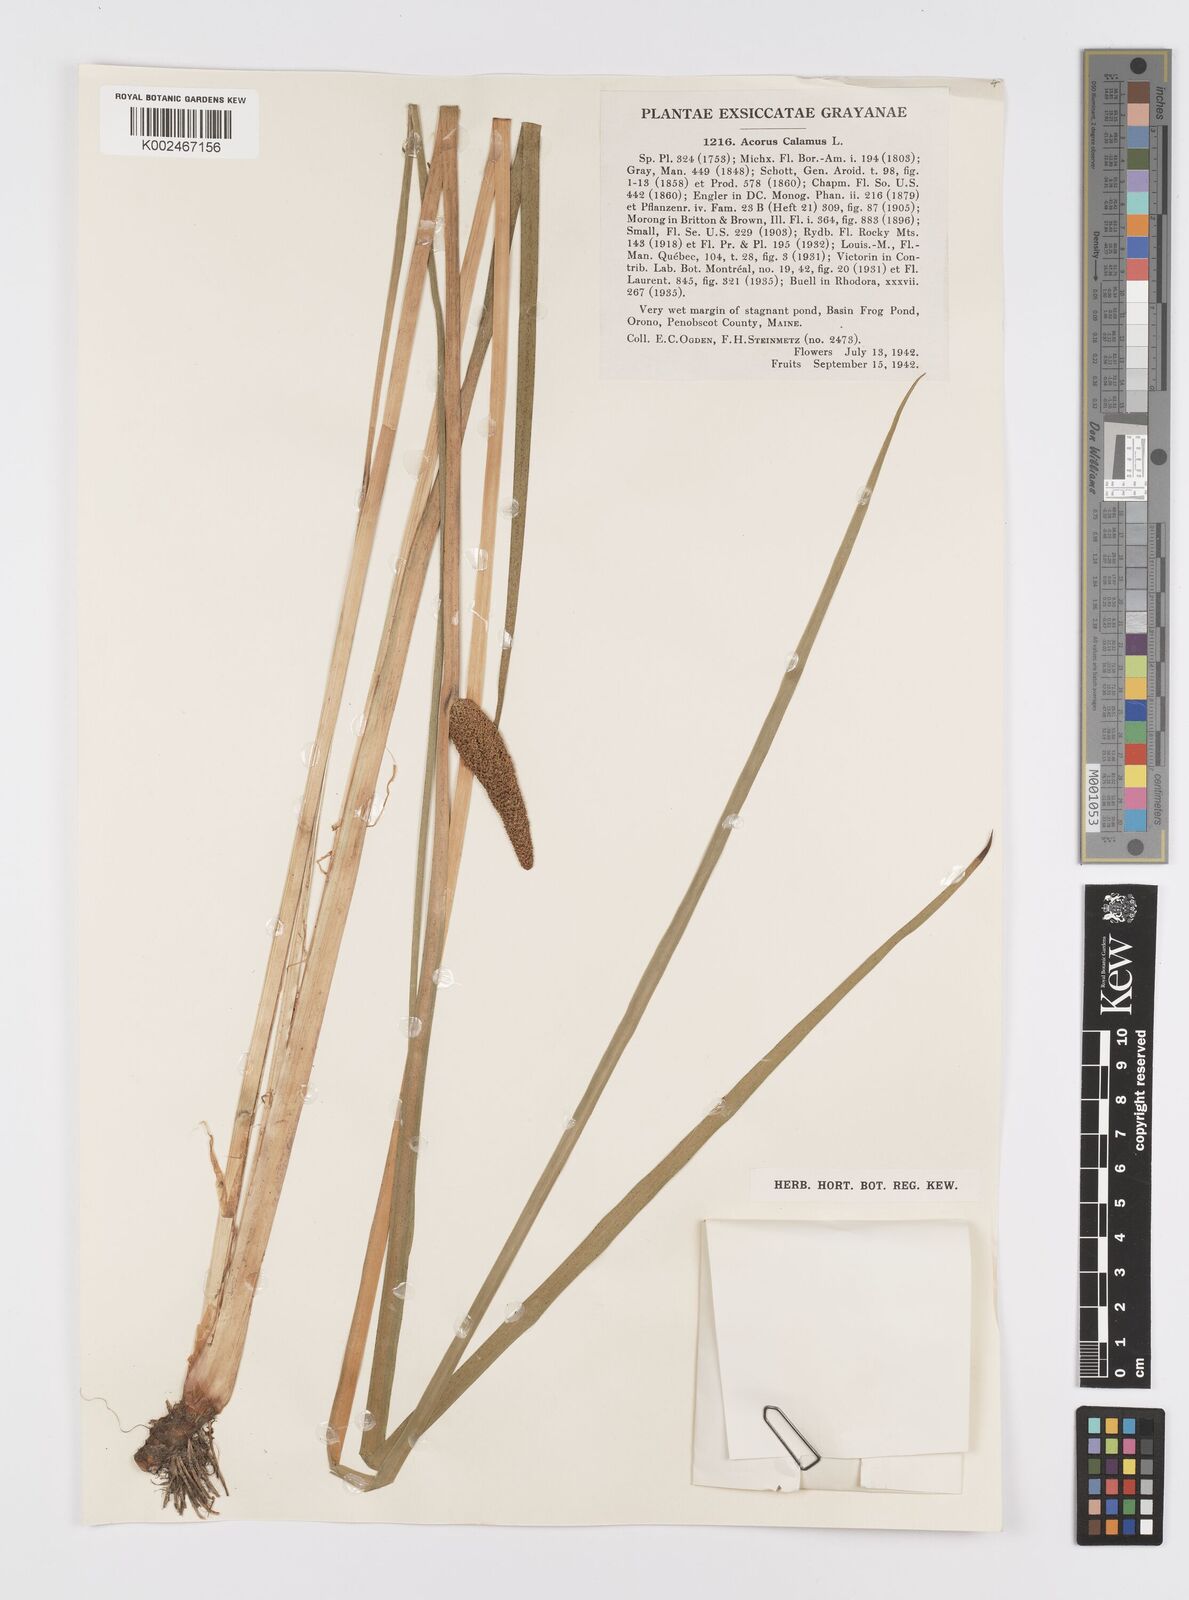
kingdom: Plantae
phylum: Tracheophyta
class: Liliopsida
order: Acorales
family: Acoraceae
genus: Acorus
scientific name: Acorus calamus
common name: Sweet-flag
